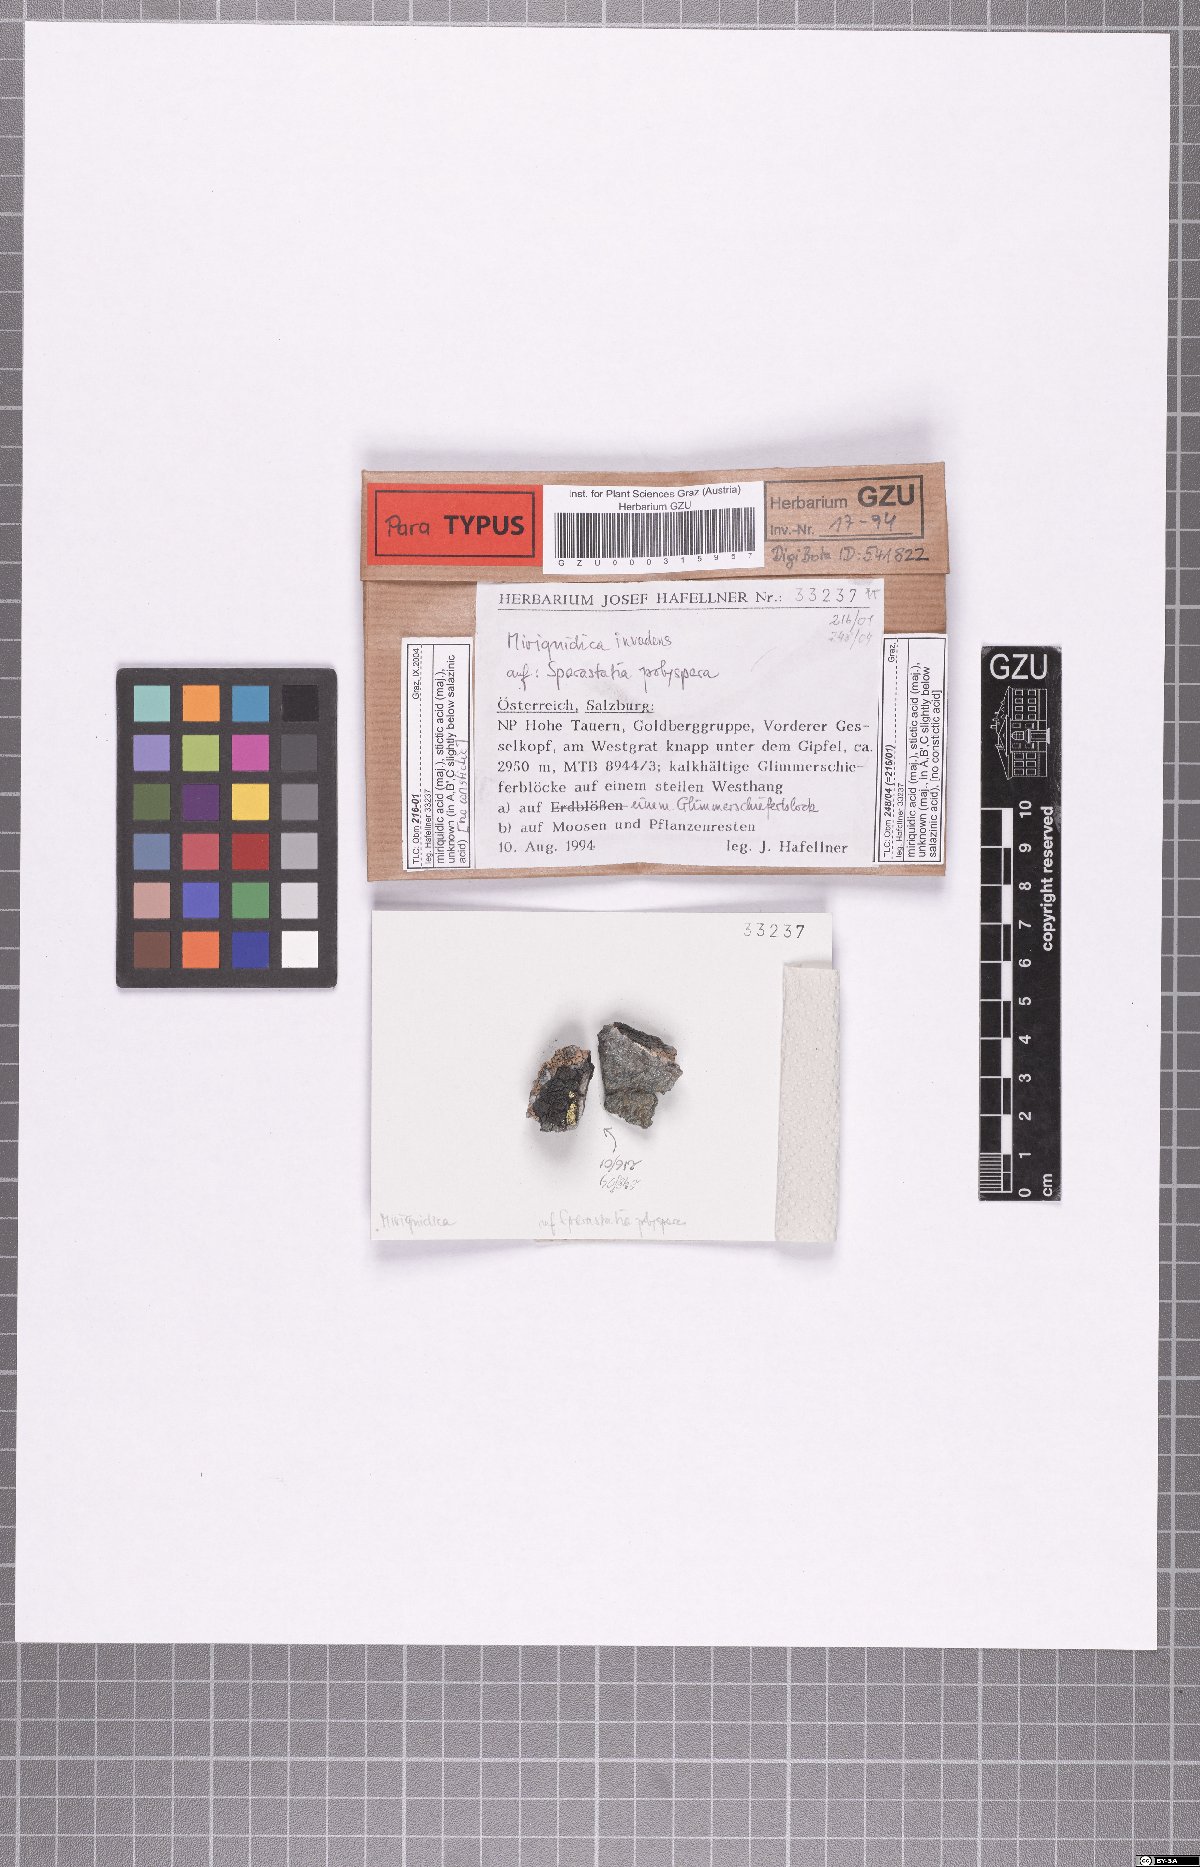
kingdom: Fungi
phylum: Ascomycota
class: Lecanoromycetes
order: Lecanorales
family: Lecanoraceae
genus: Miriquidica
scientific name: Miriquidica invadens
